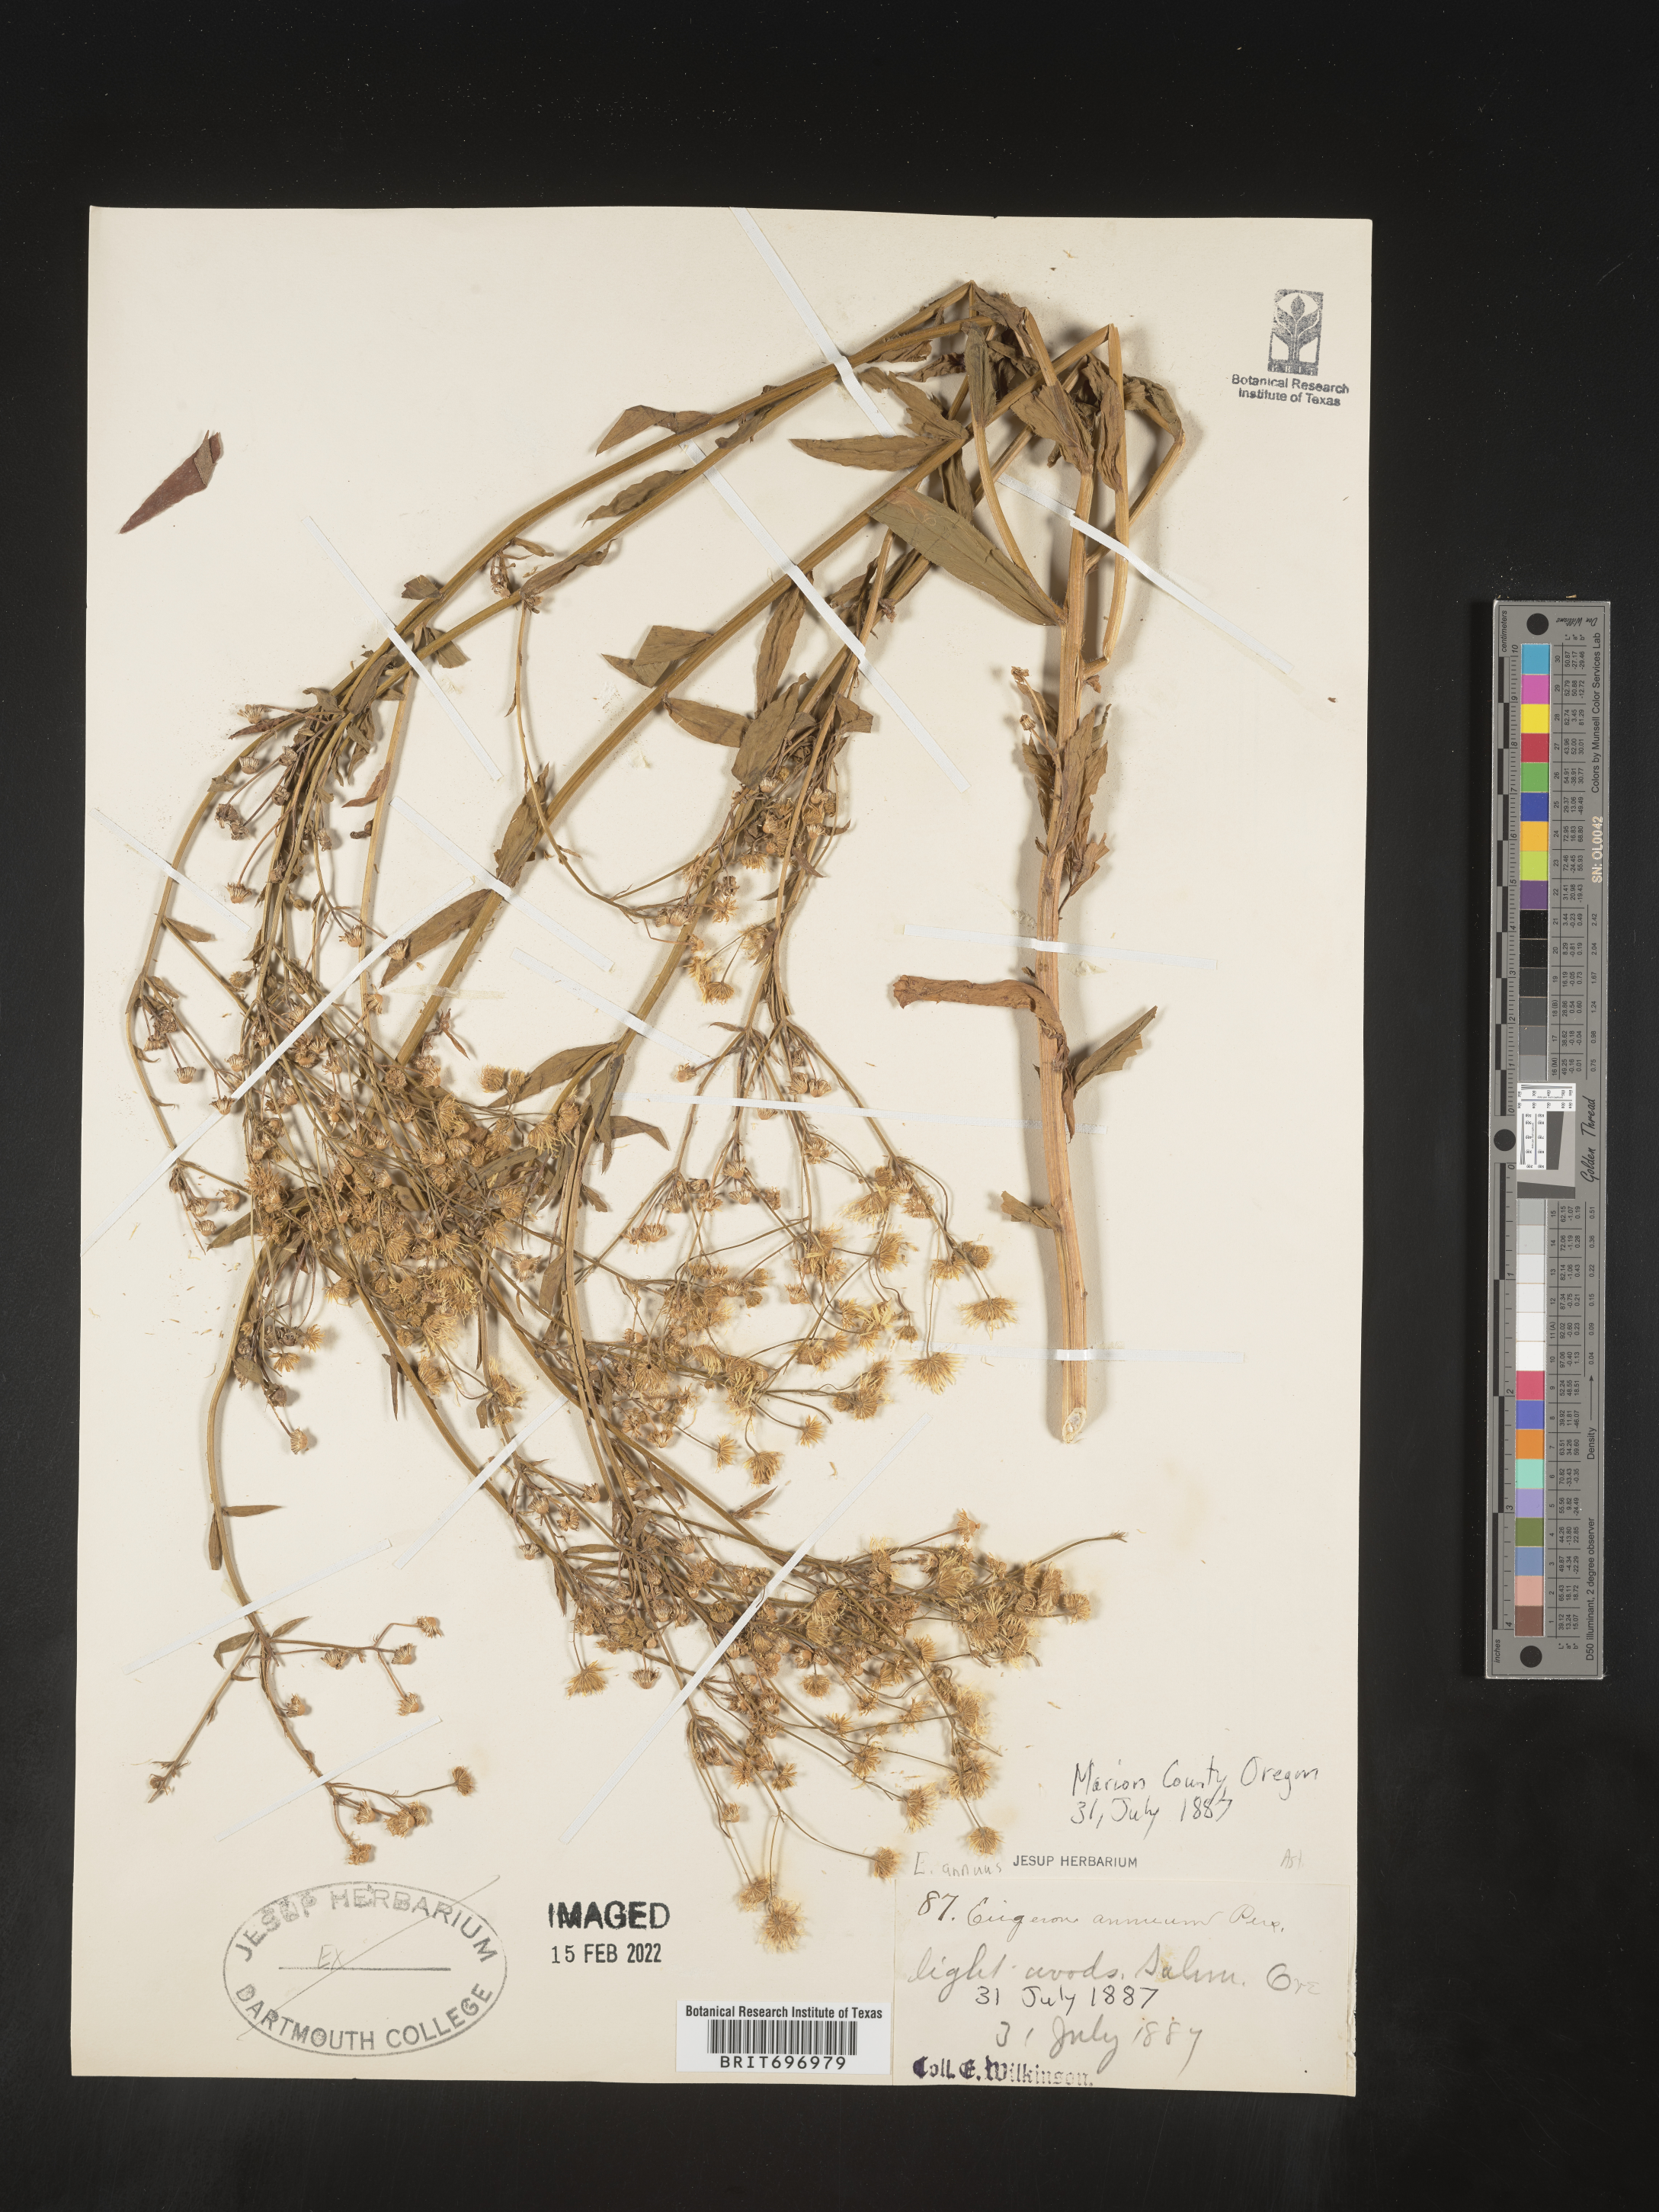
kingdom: Plantae
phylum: Tracheophyta
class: Magnoliopsida
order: Asterales
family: Asteraceae
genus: Erigeron
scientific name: Erigeron annuus
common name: Tall fleabane
